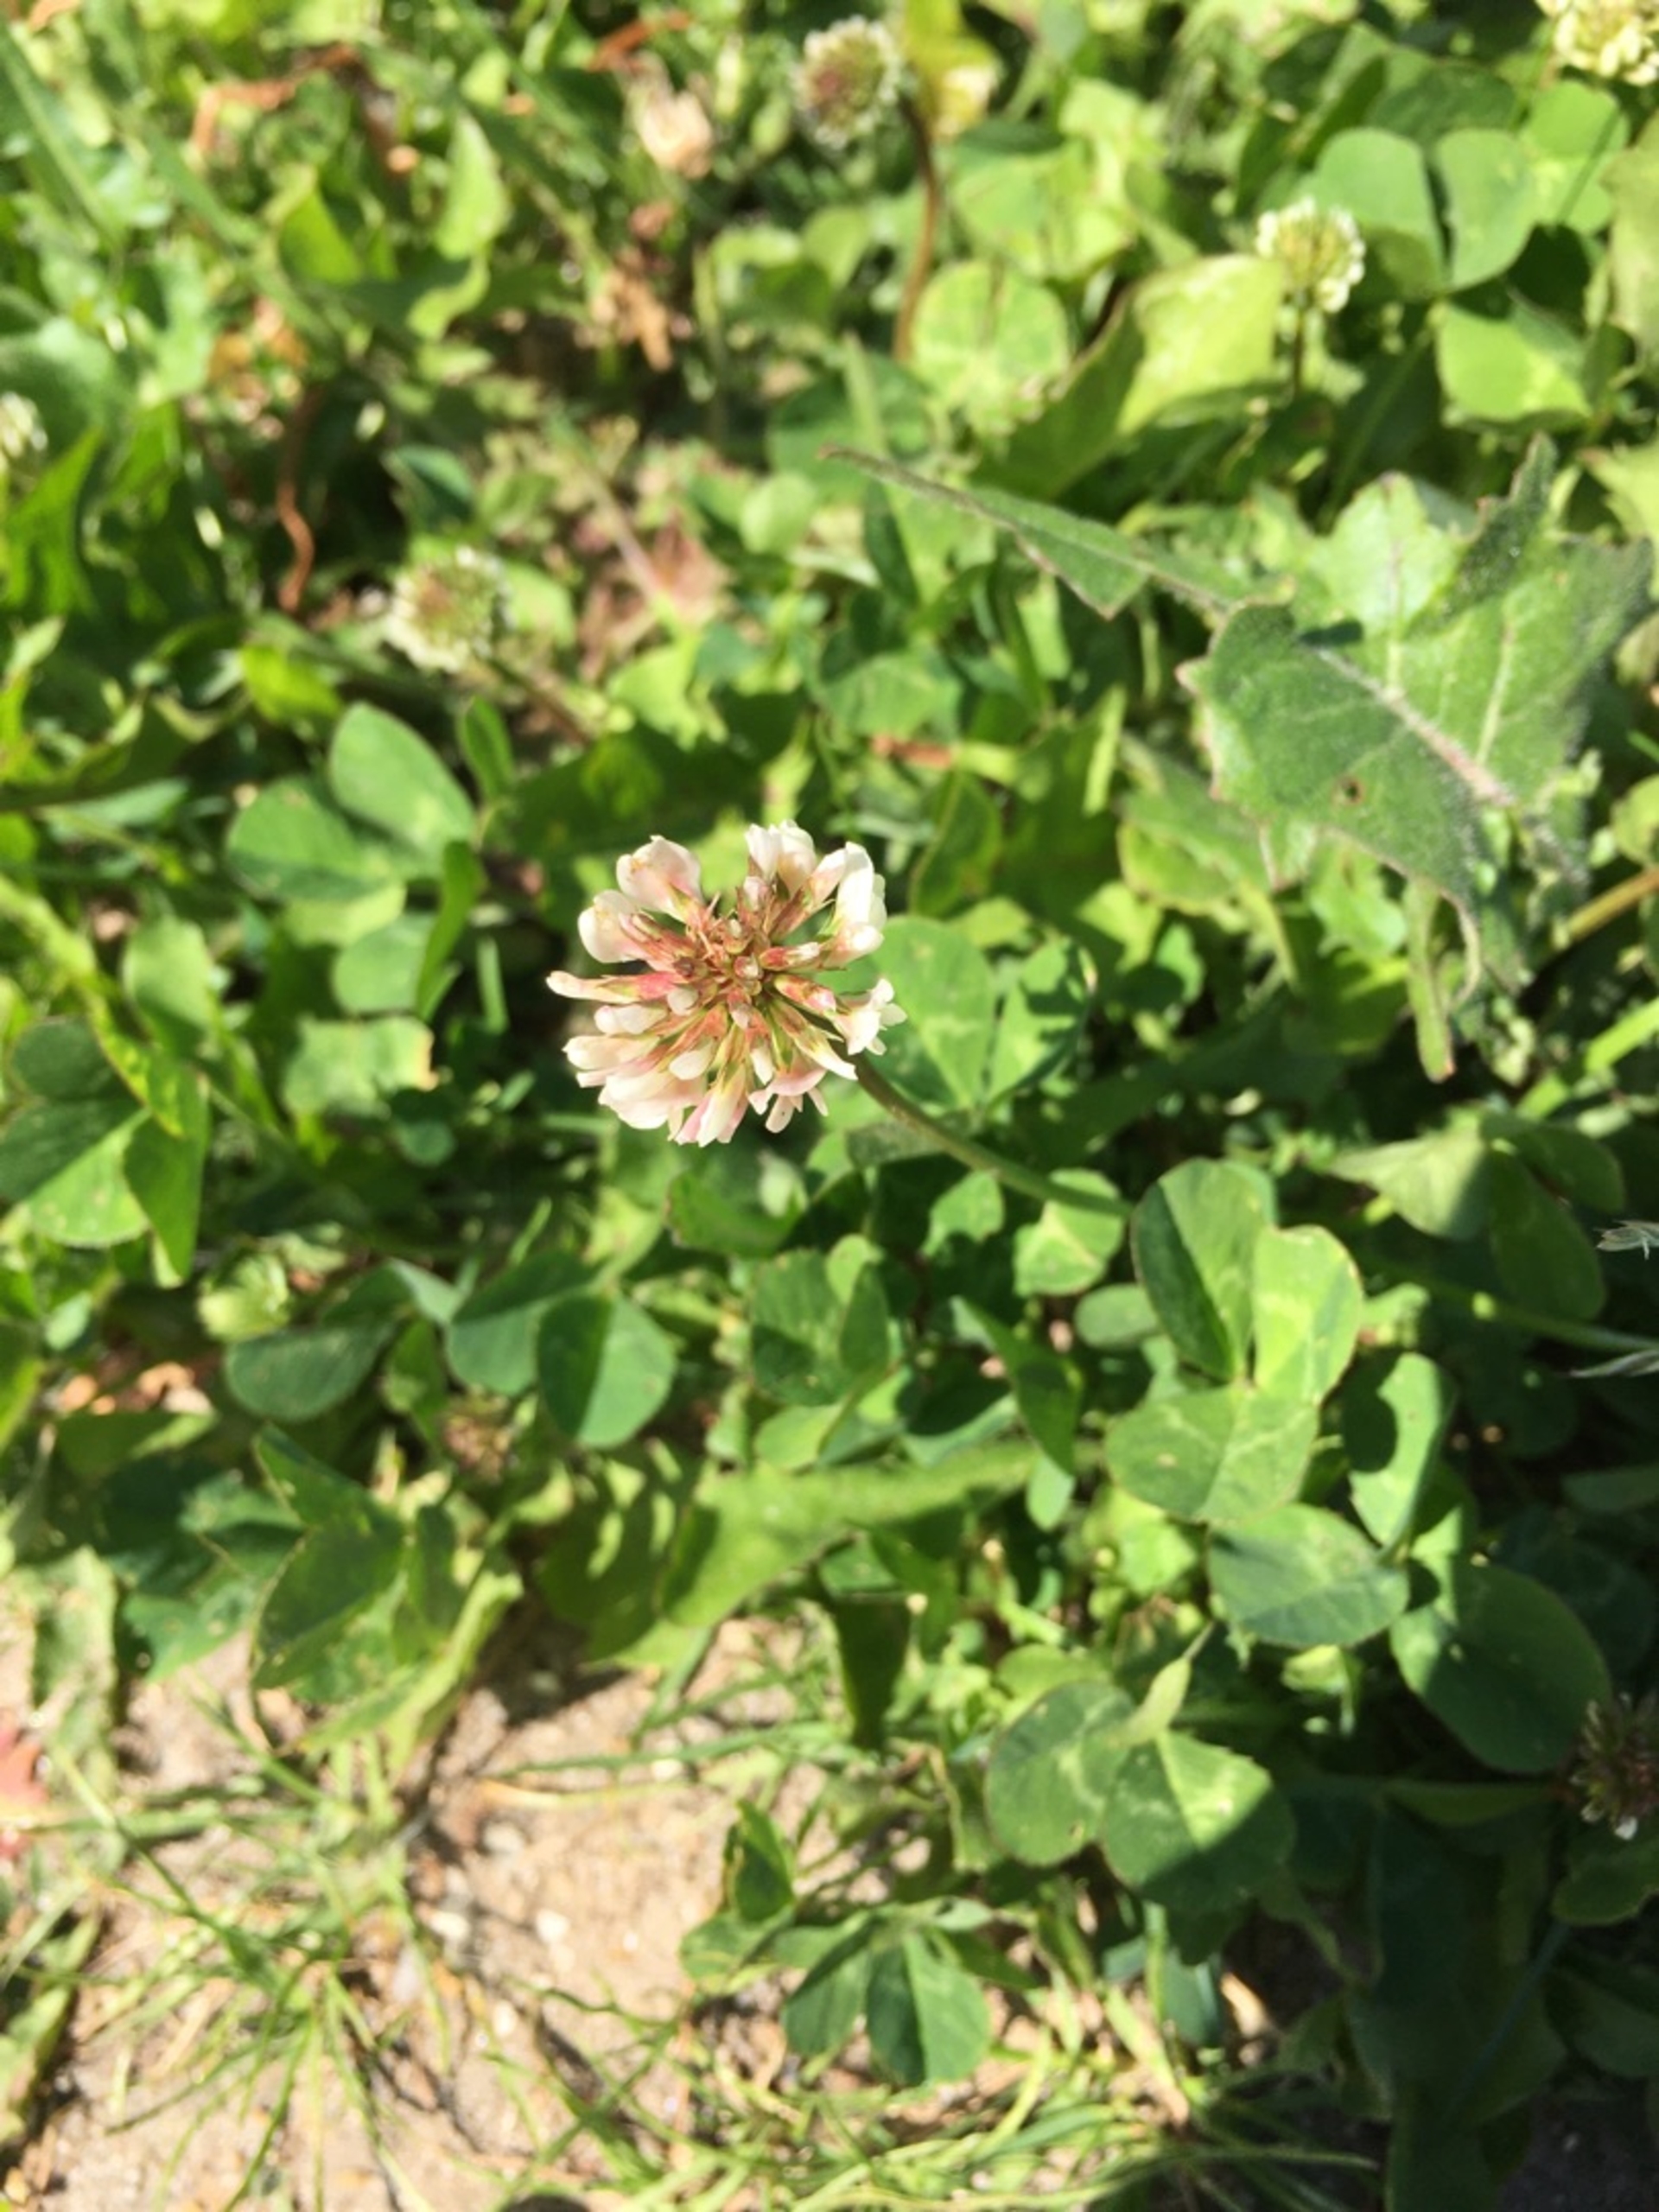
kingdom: Plantae
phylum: Tracheophyta
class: Magnoliopsida
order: Fabales
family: Fabaceae
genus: Trifolium
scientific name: Trifolium repens
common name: Hvid-kløver
